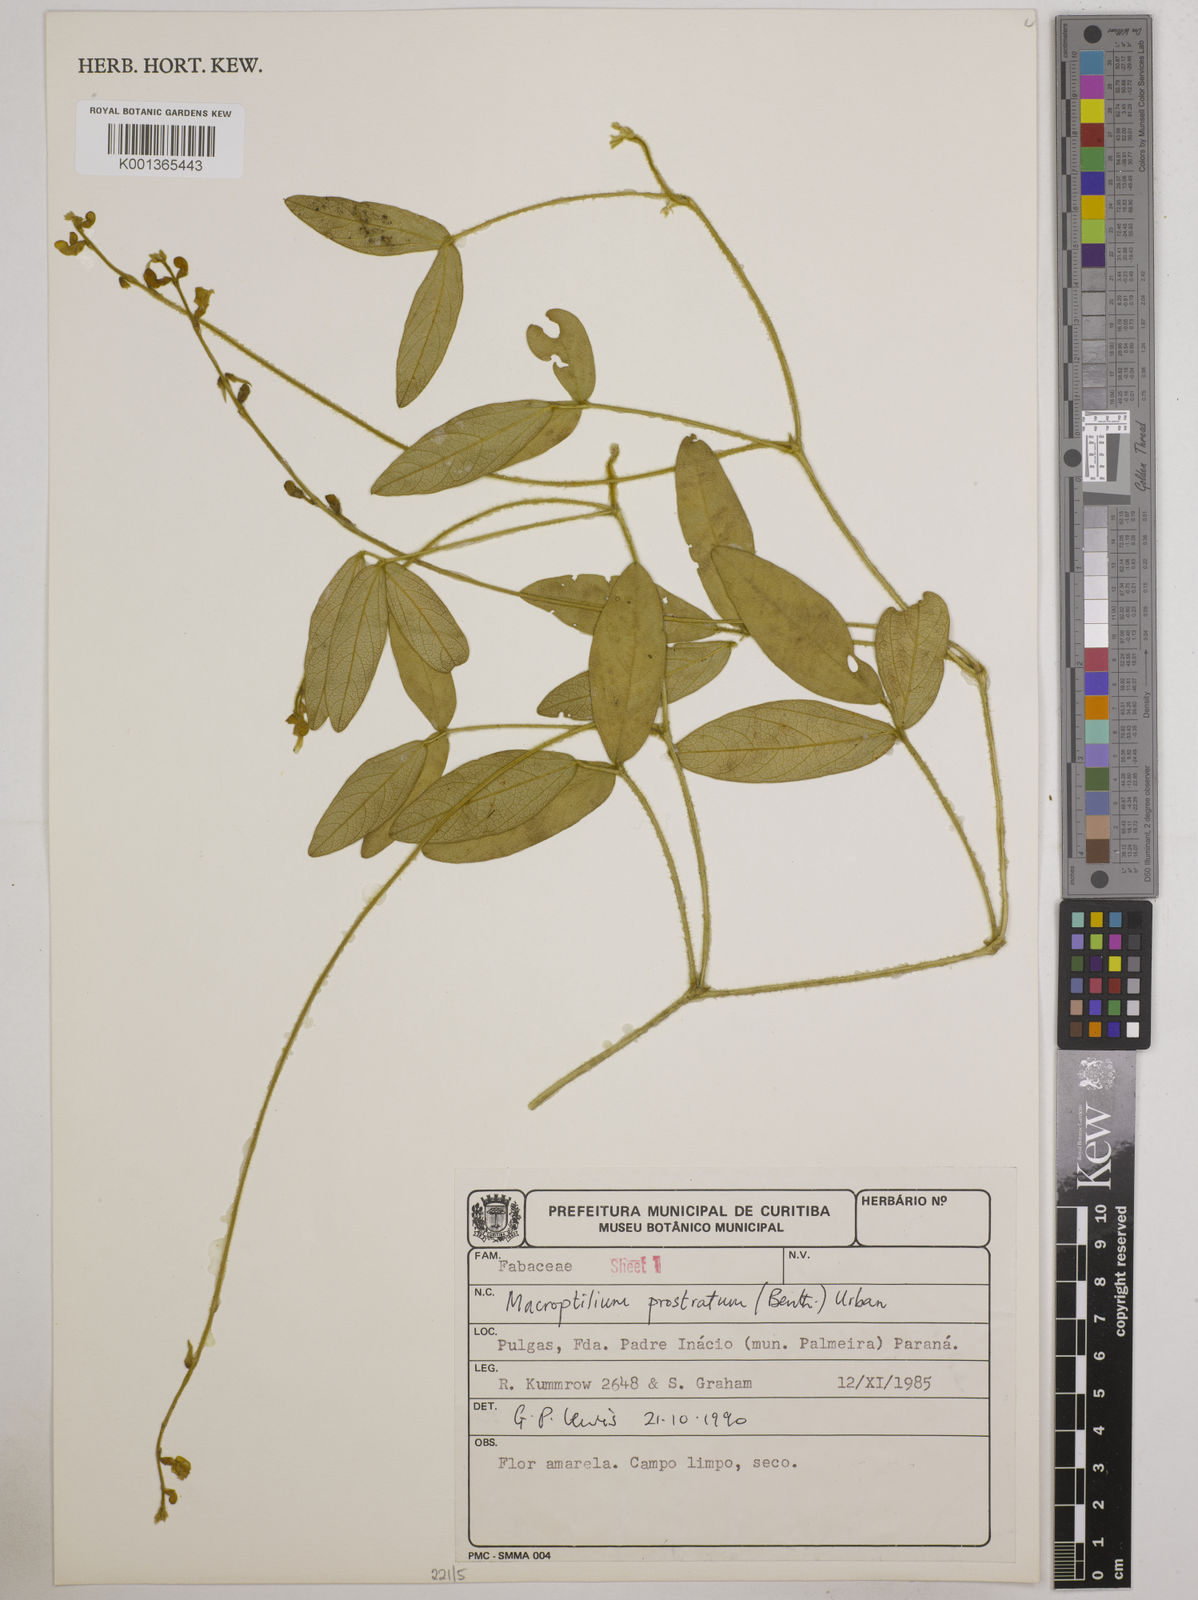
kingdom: Plantae
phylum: Tracheophyta
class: Magnoliopsida
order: Fabales
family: Fabaceae
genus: Macroptilium
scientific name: Macroptilium prostratum
